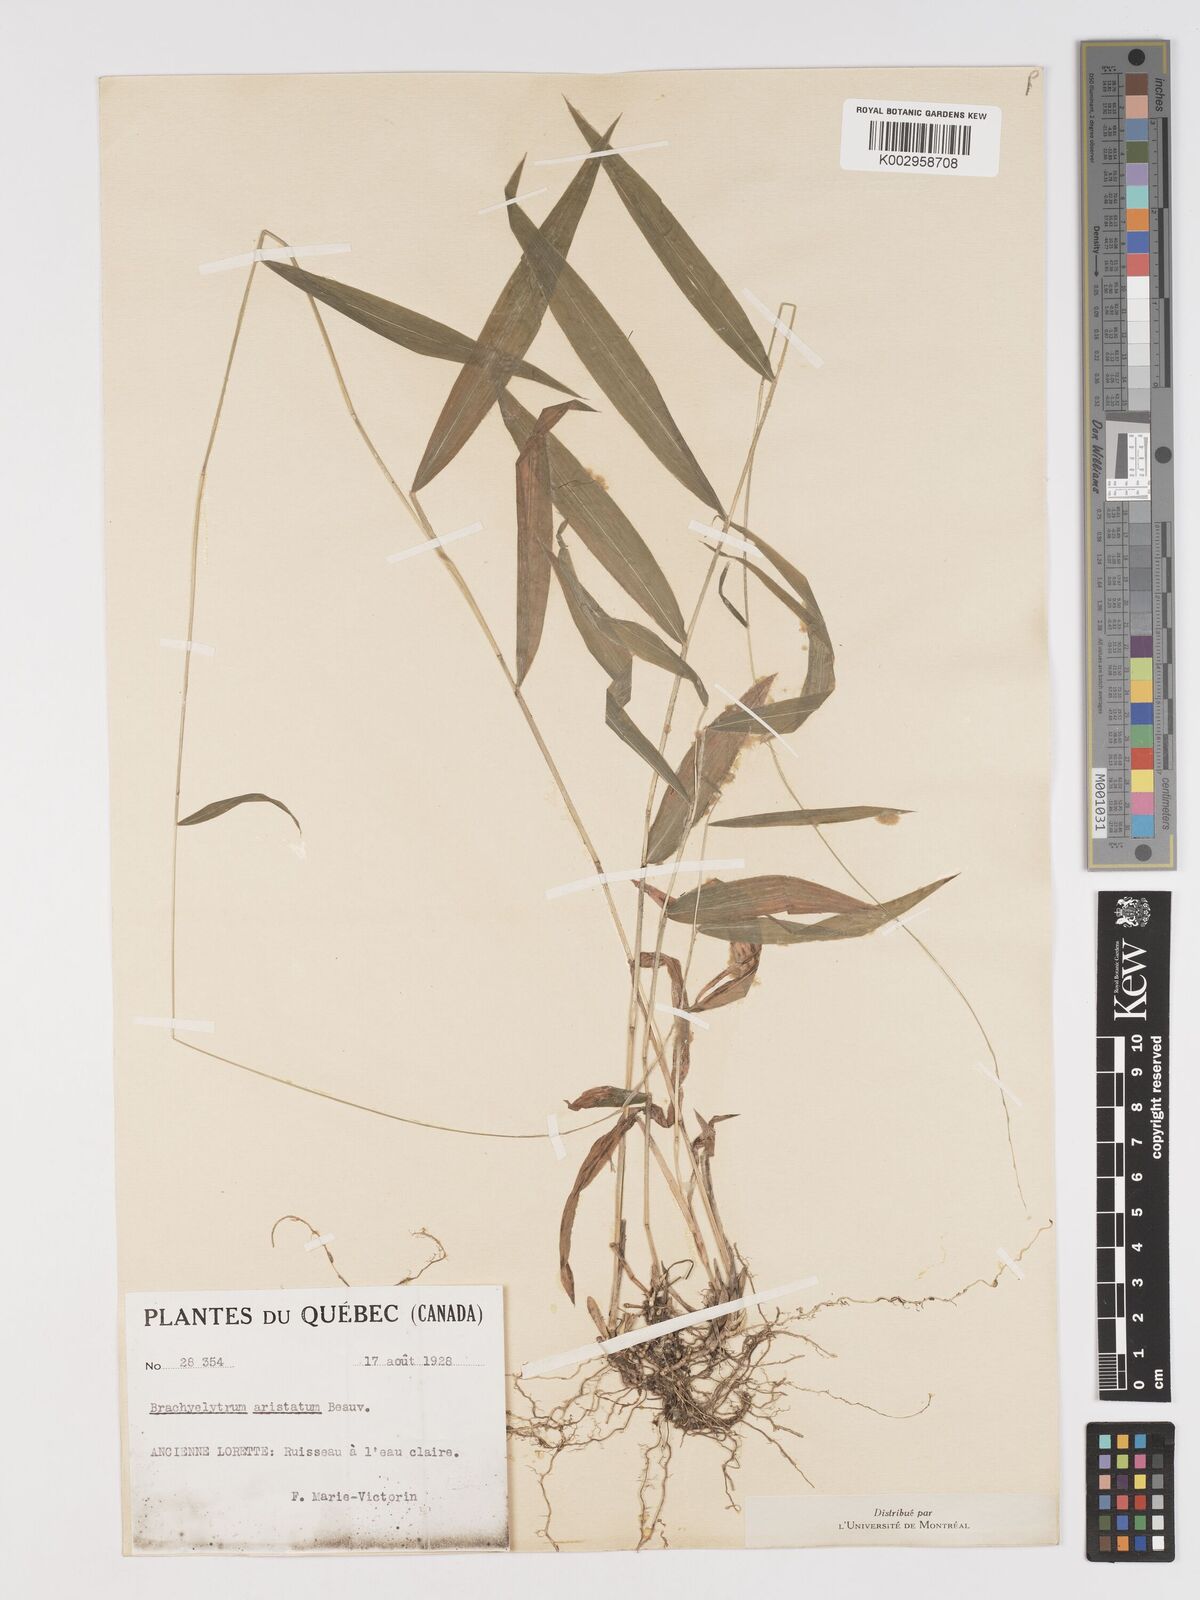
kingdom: Plantae
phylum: Tracheophyta
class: Liliopsida
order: Poales
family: Poaceae
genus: Brachyelytrum
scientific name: Brachyelytrum aristosum
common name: Northern shorthusk
